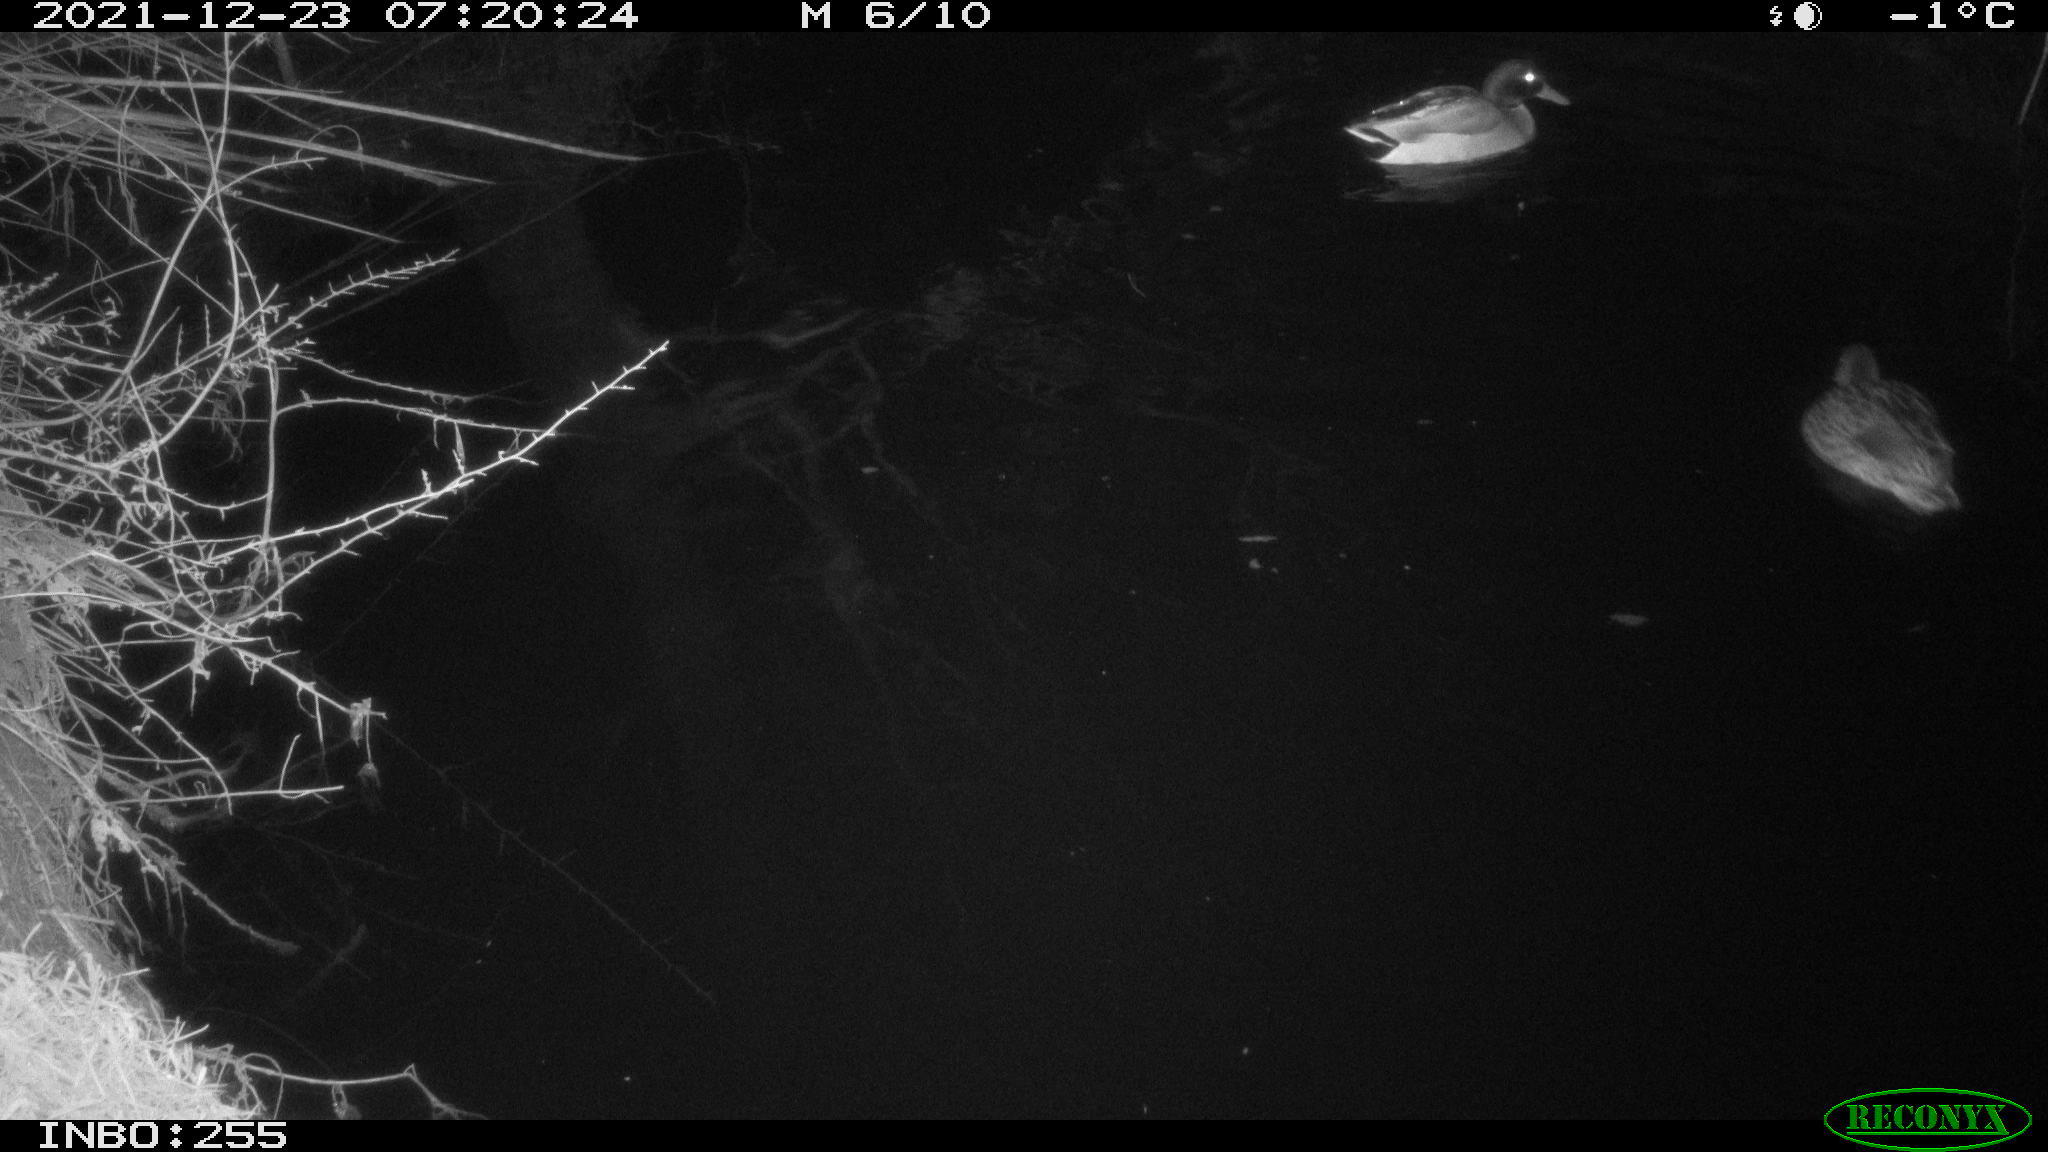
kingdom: Animalia
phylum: Chordata
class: Aves
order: Anseriformes
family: Anatidae
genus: Anas
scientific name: Anas
